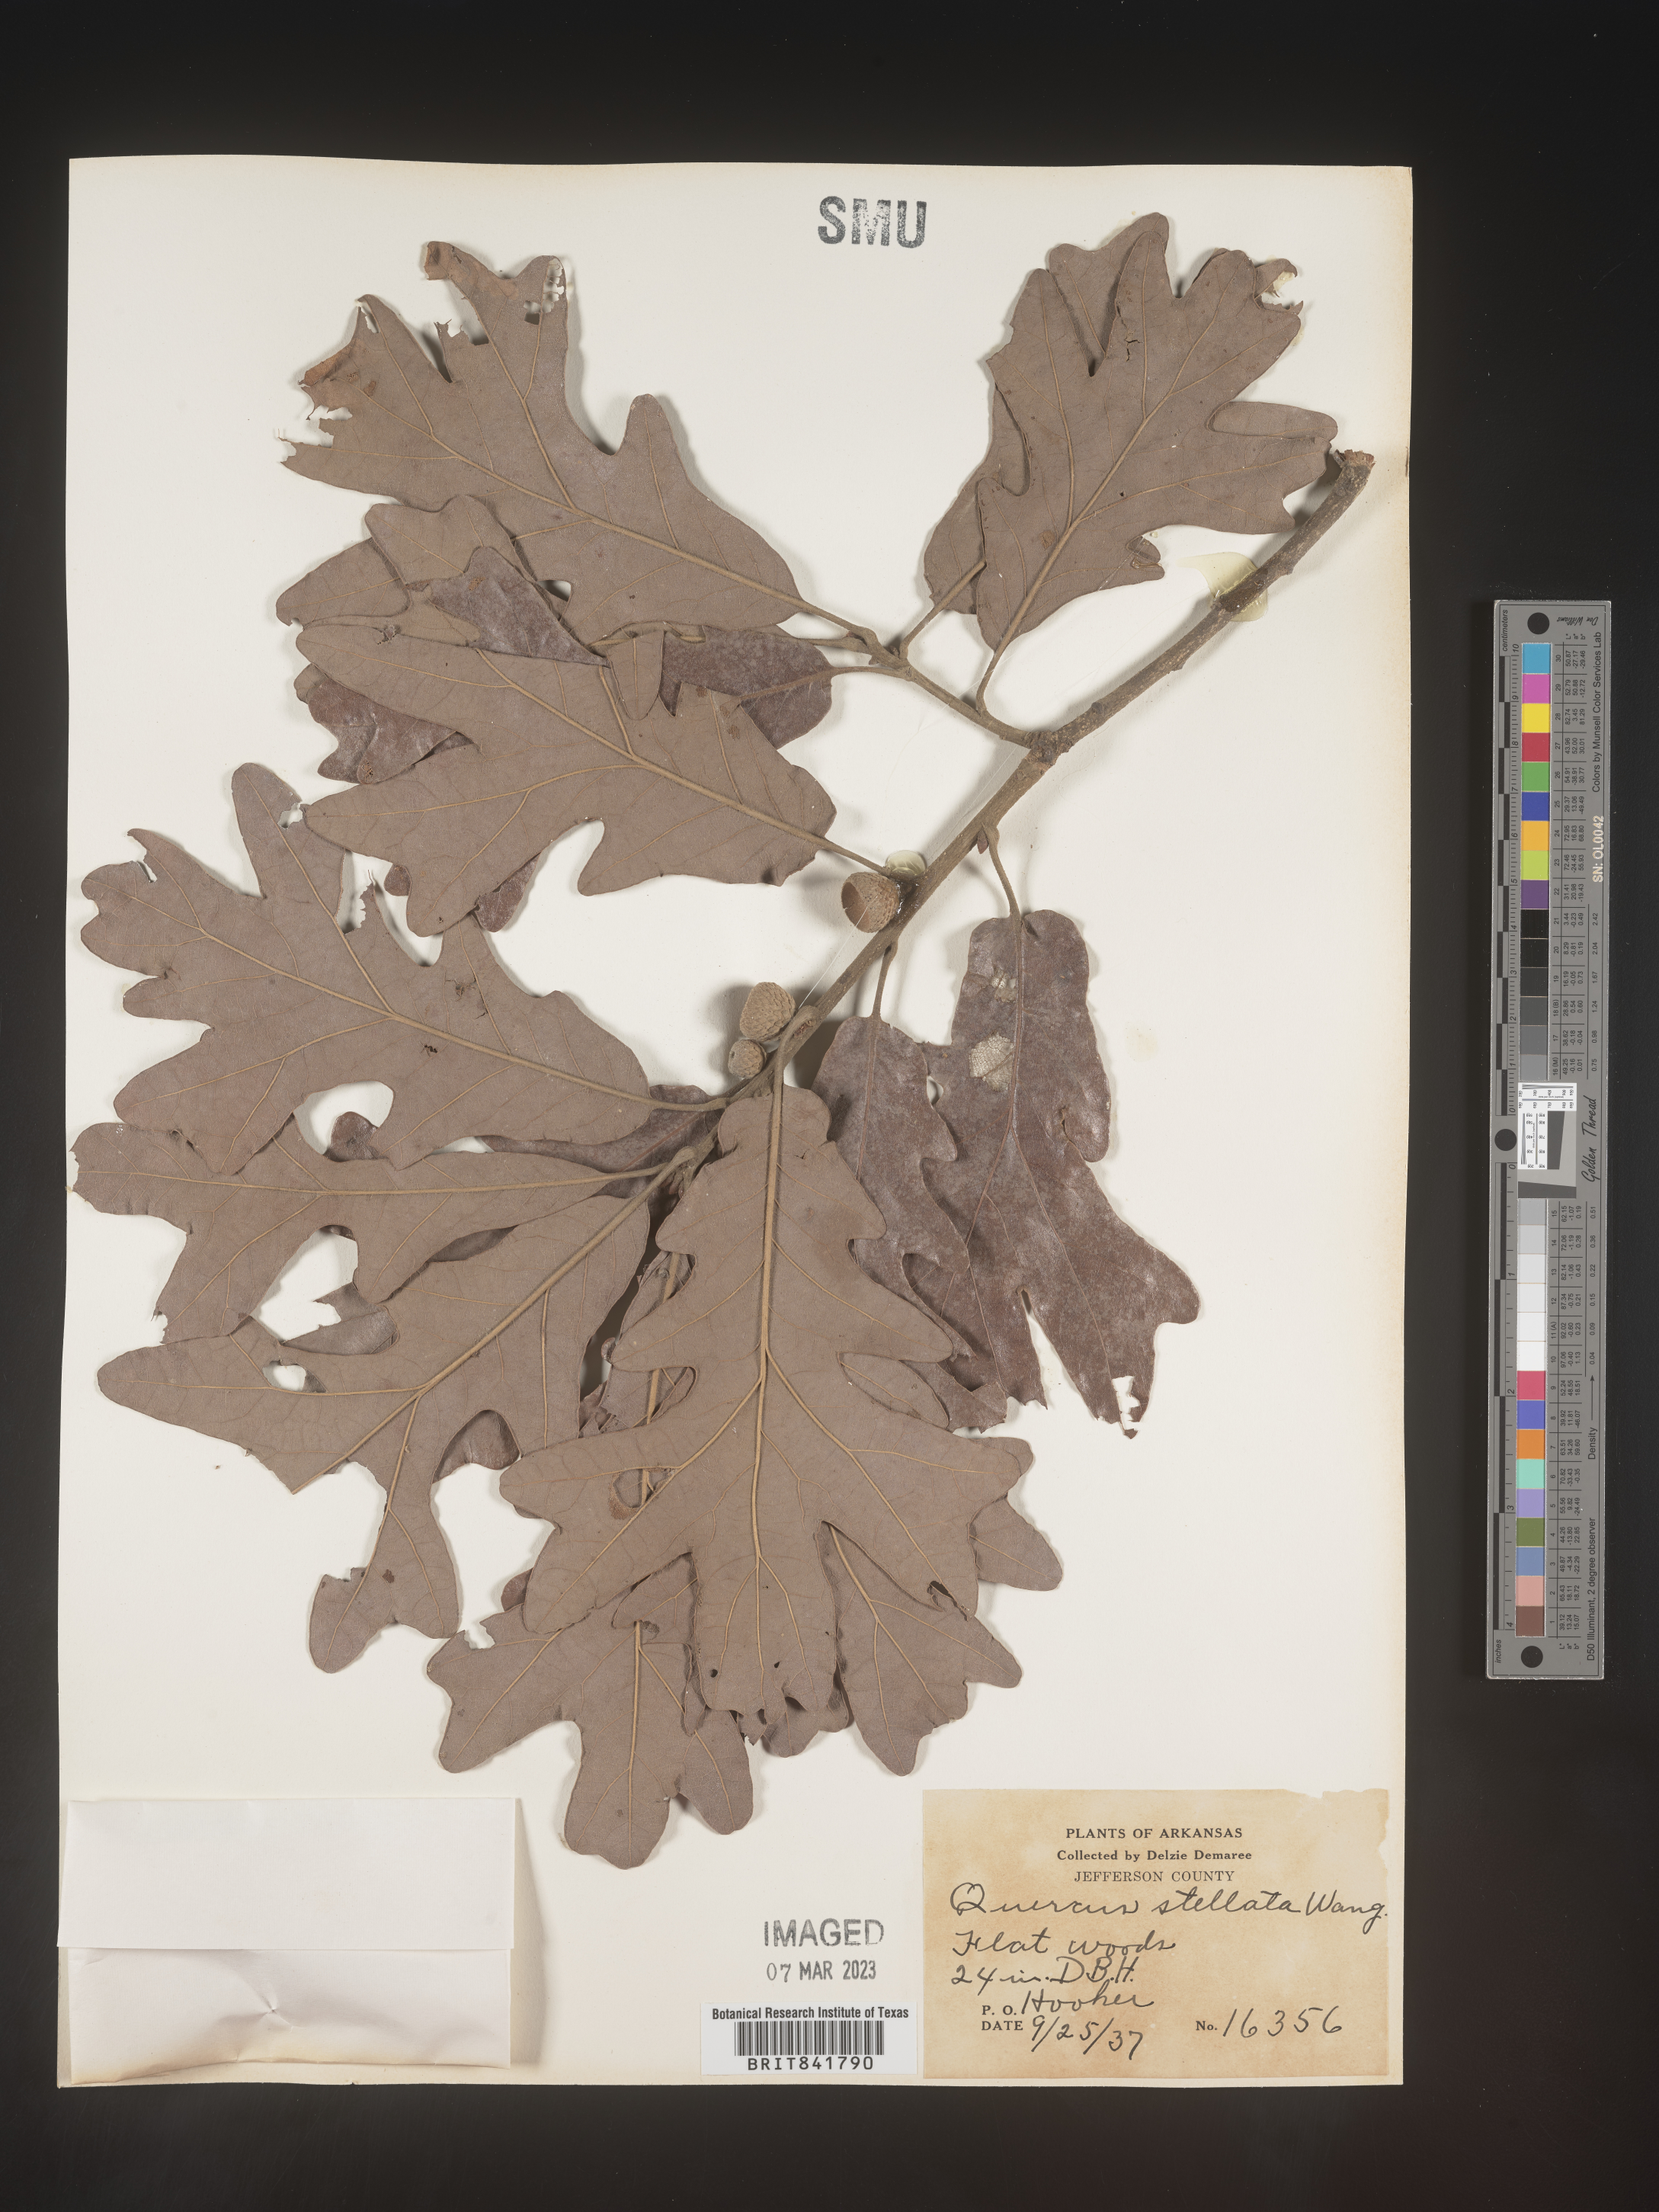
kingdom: Plantae
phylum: Tracheophyta
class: Magnoliopsida
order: Fagales
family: Fagaceae
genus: Quercus
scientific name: Quercus stellata
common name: Post oak
